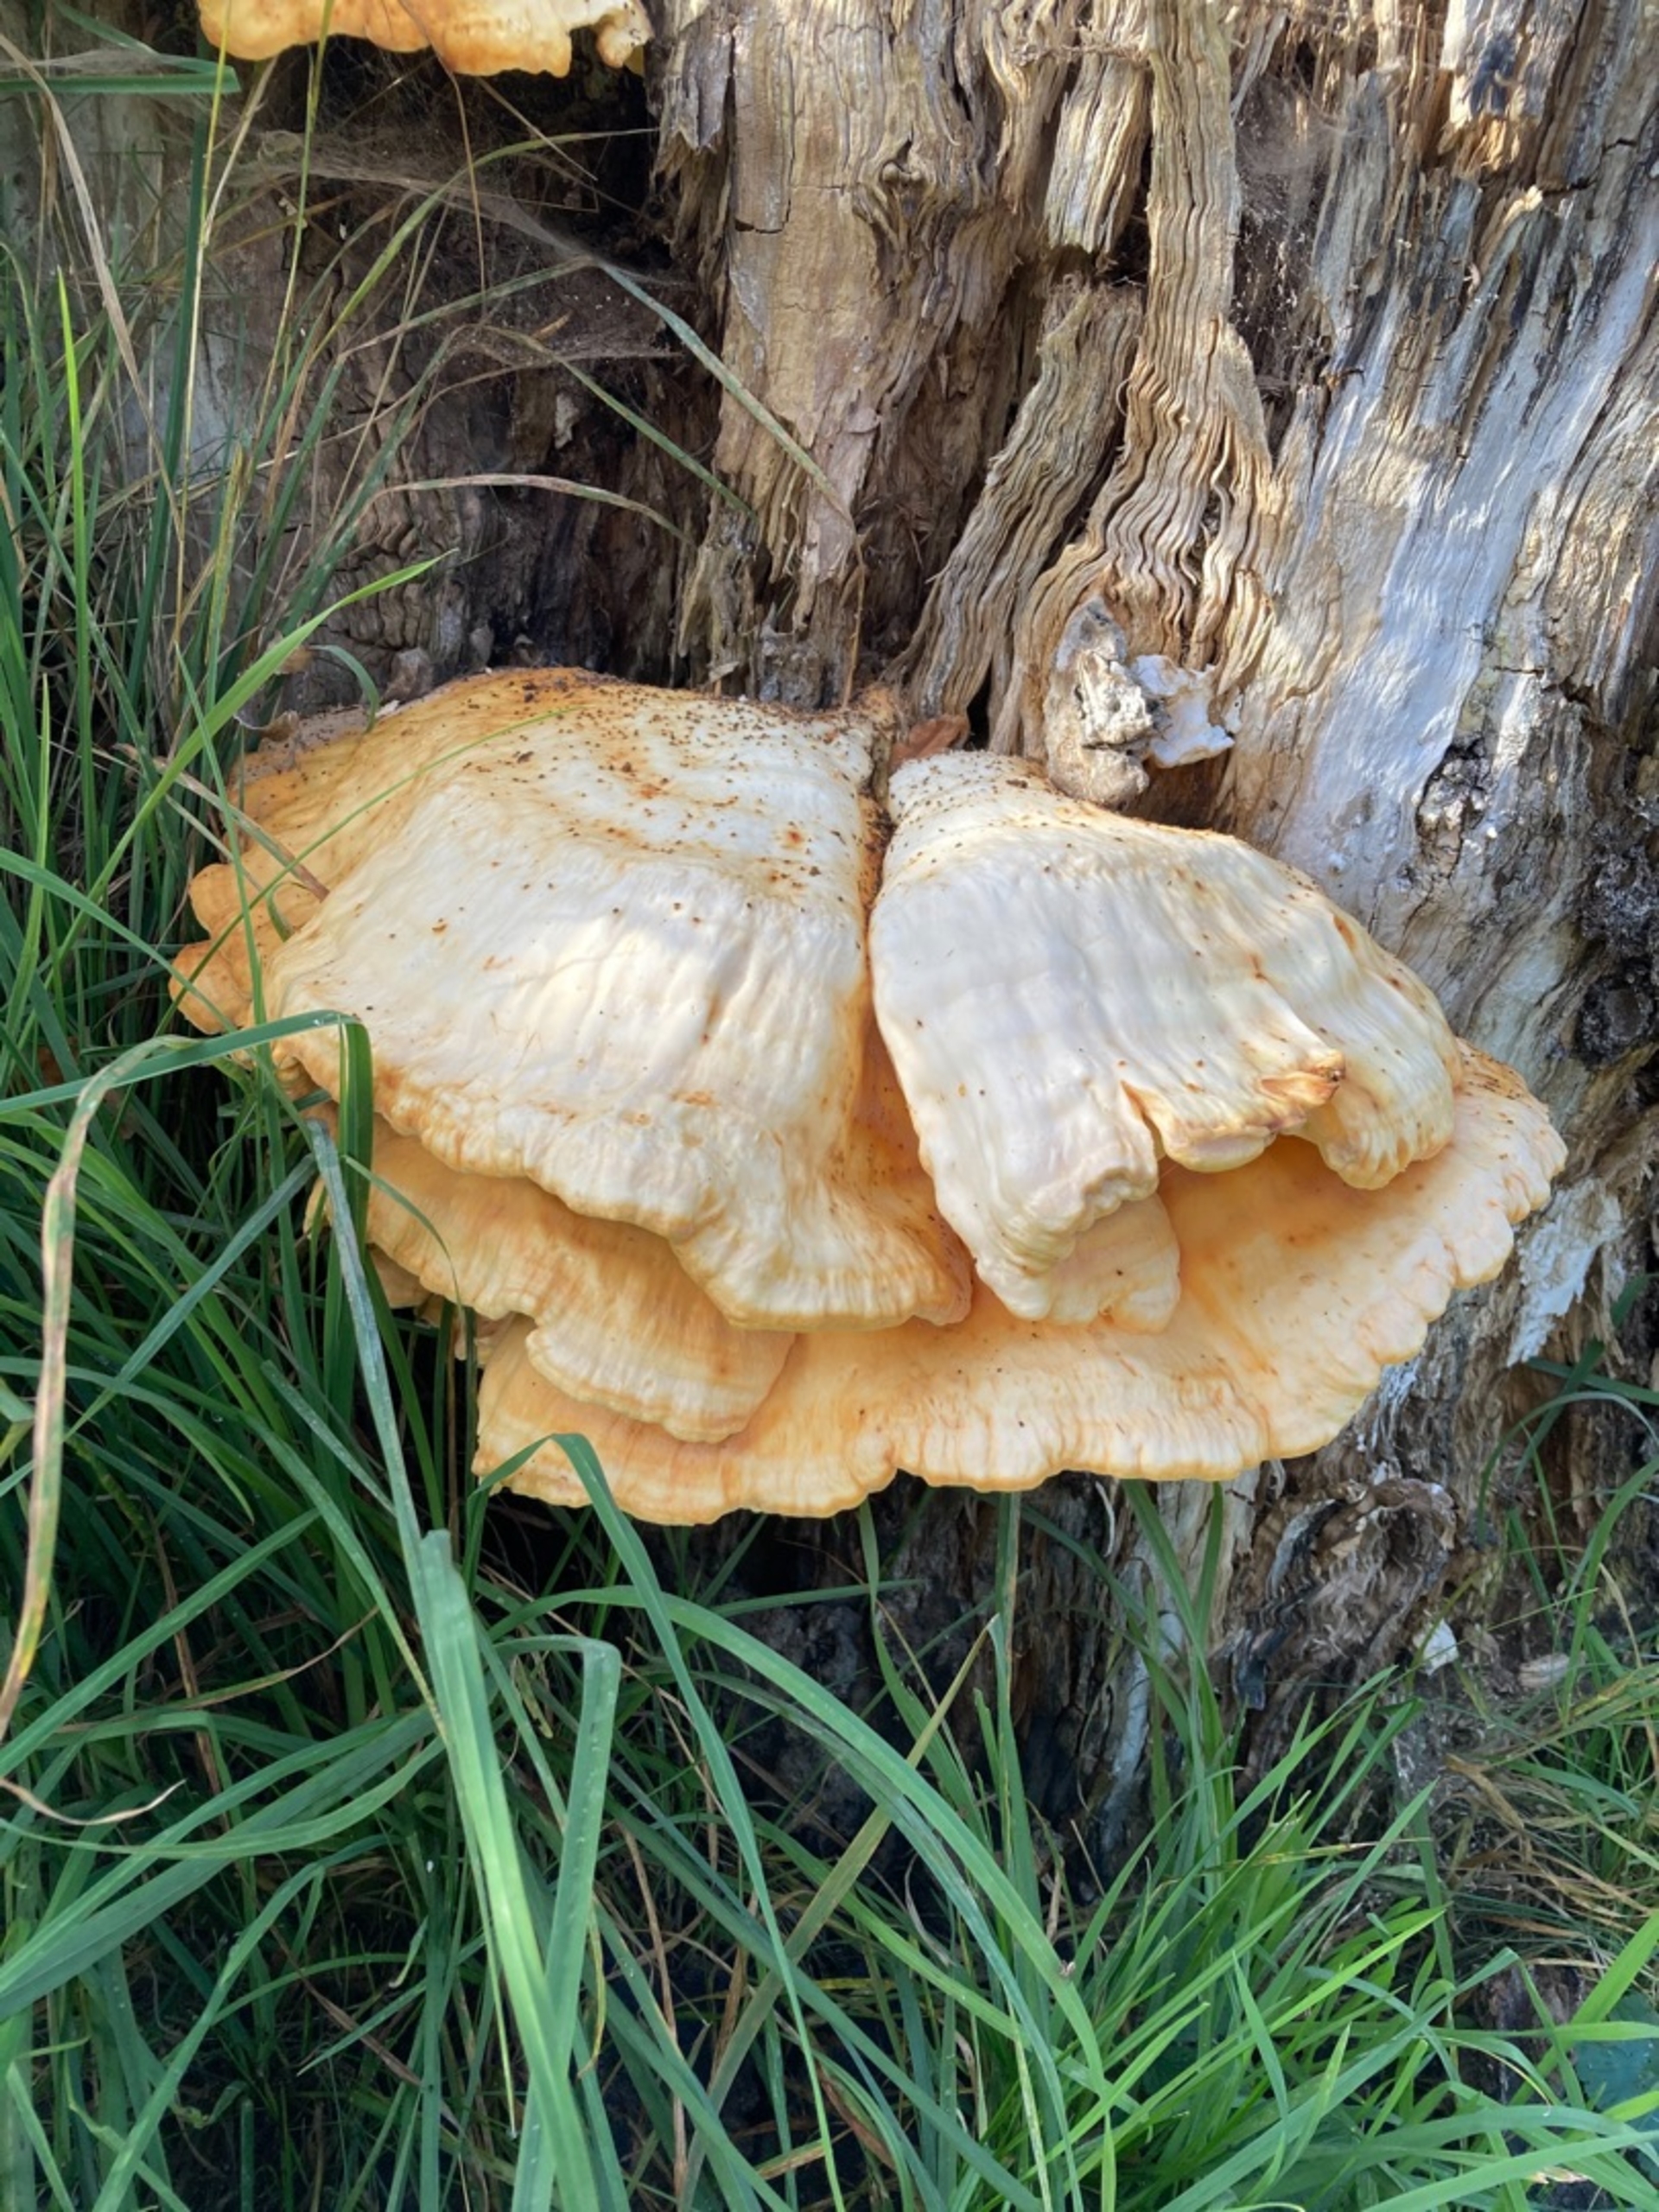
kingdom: Fungi
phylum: Basidiomycota
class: Agaricomycetes
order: Polyporales
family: Laetiporaceae
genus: Laetiporus
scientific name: Laetiporus sulphureus
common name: Svovlporesvamp
